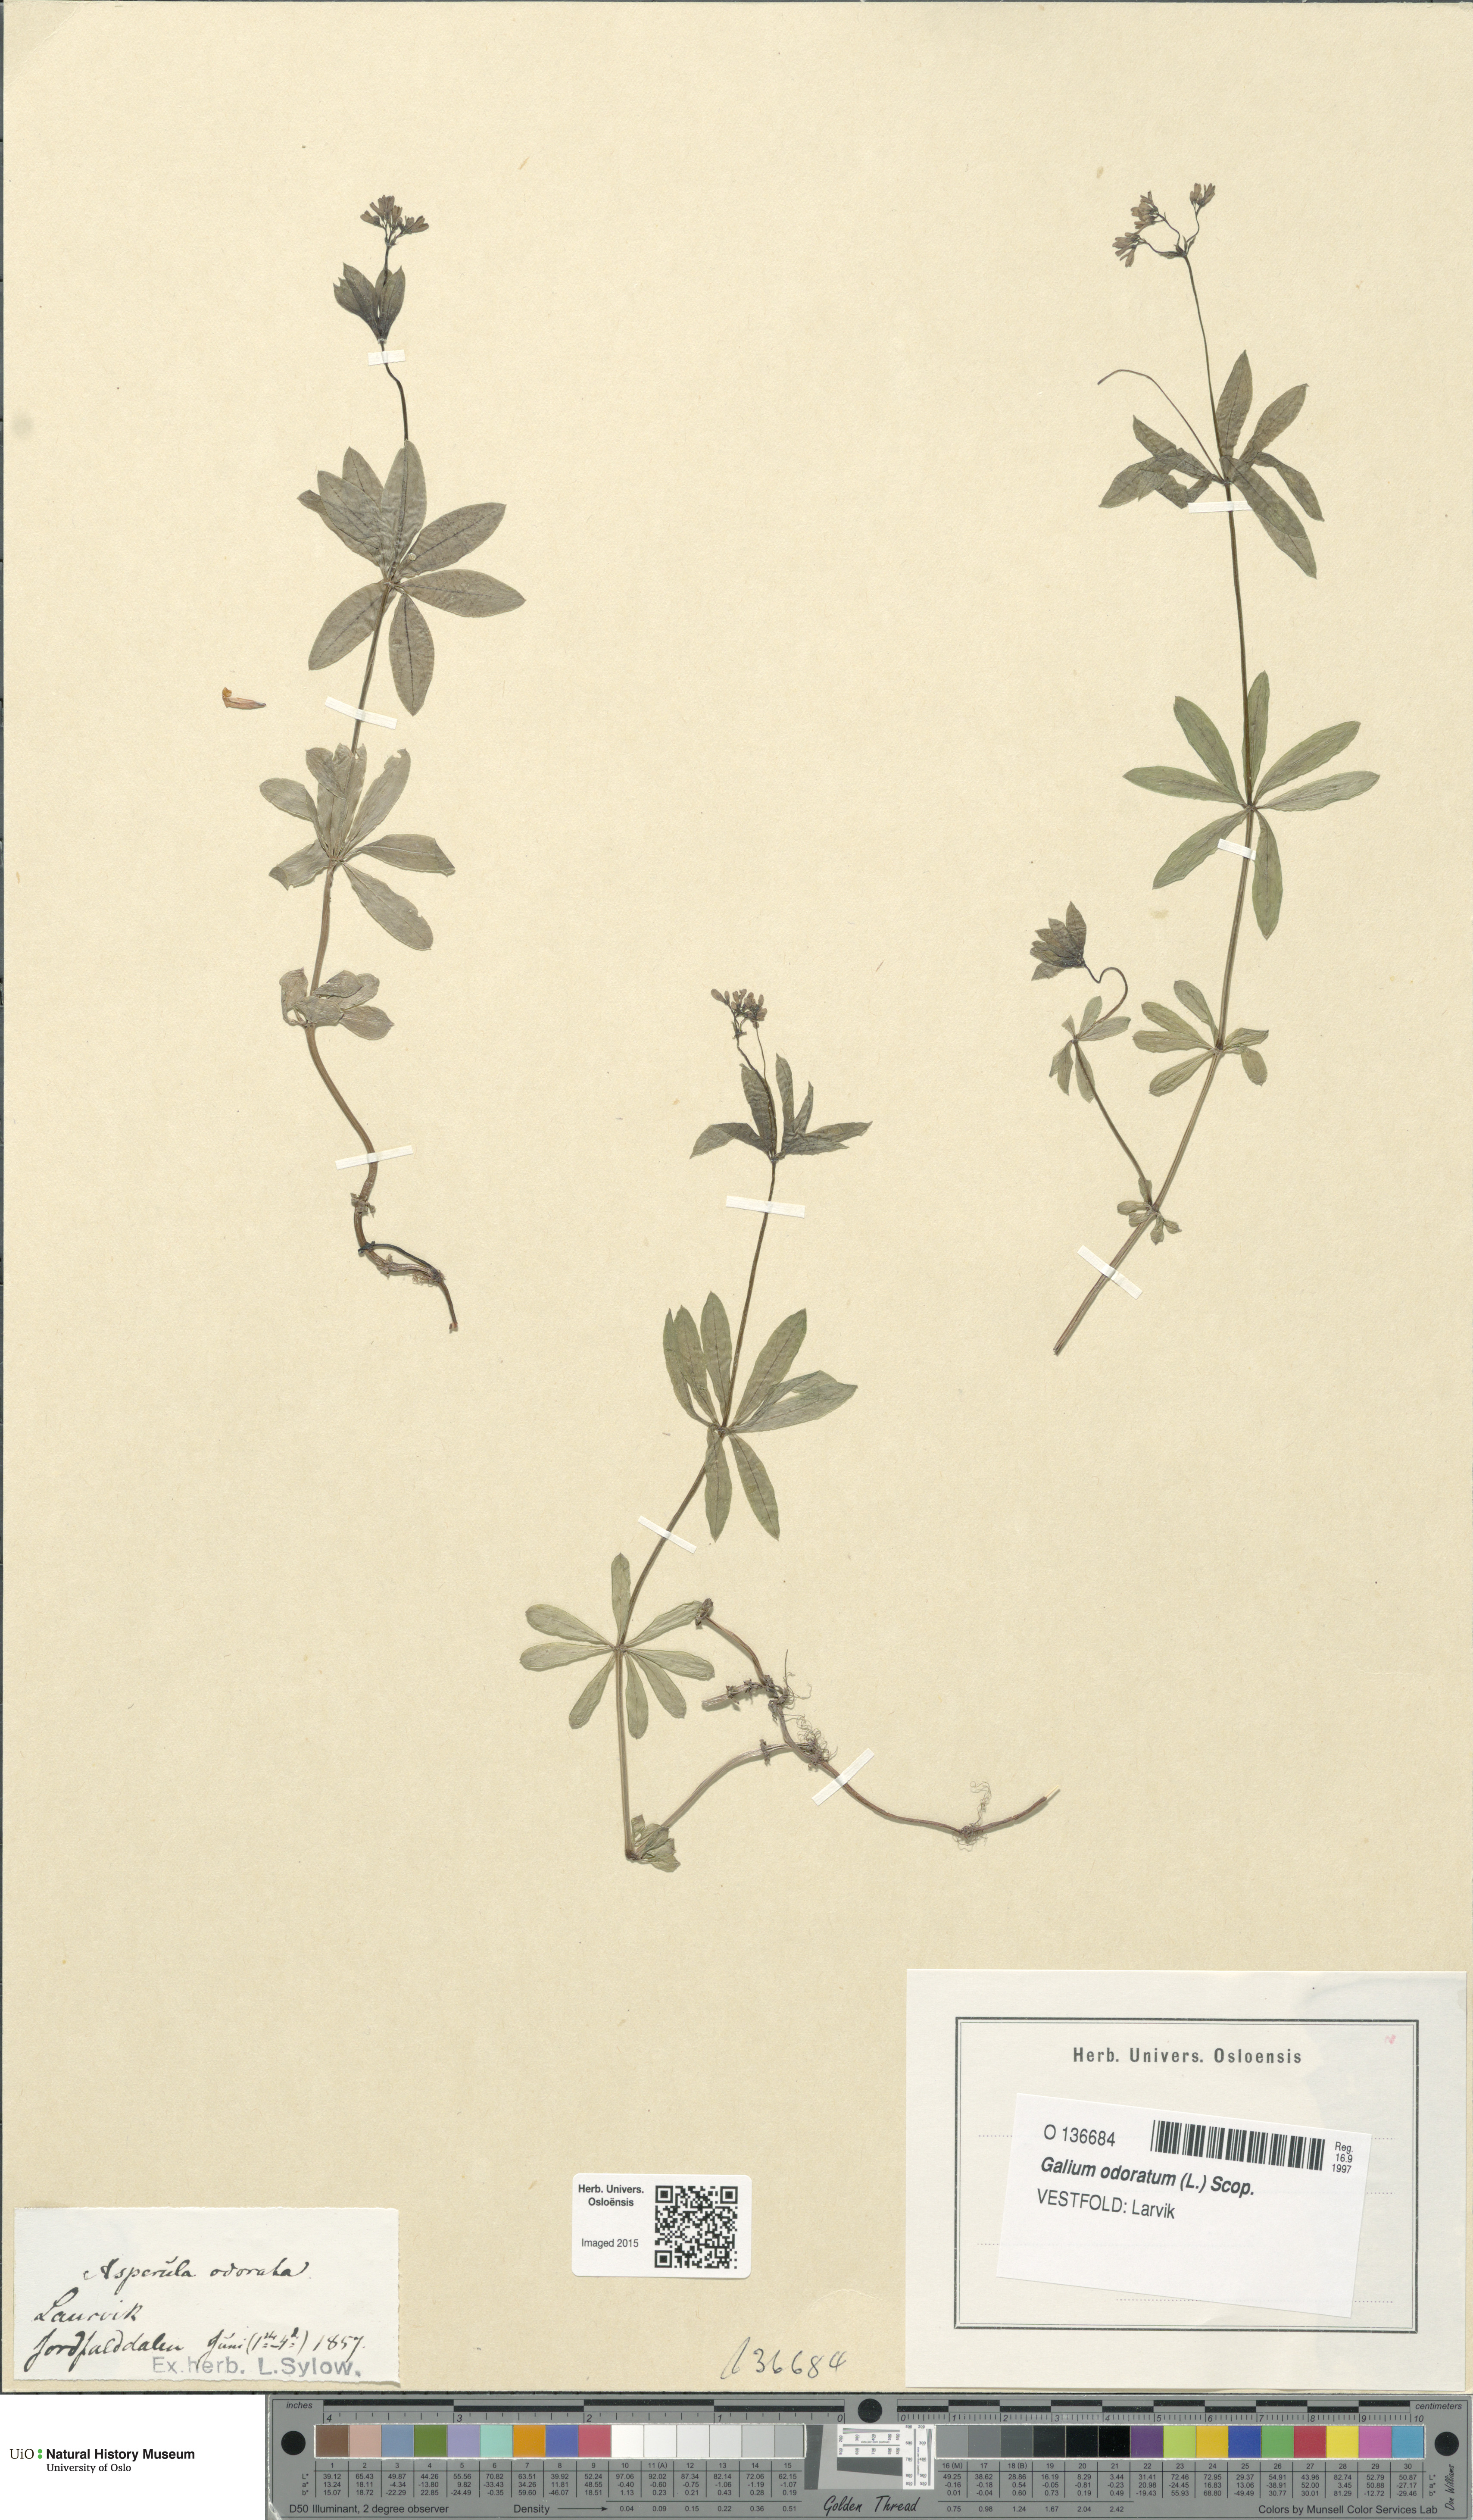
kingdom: Plantae
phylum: Tracheophyta
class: Magnoliopsida
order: Gentianales
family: Rubiaceae
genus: Galium
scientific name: Galium odoratum
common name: Sweet woodruff
